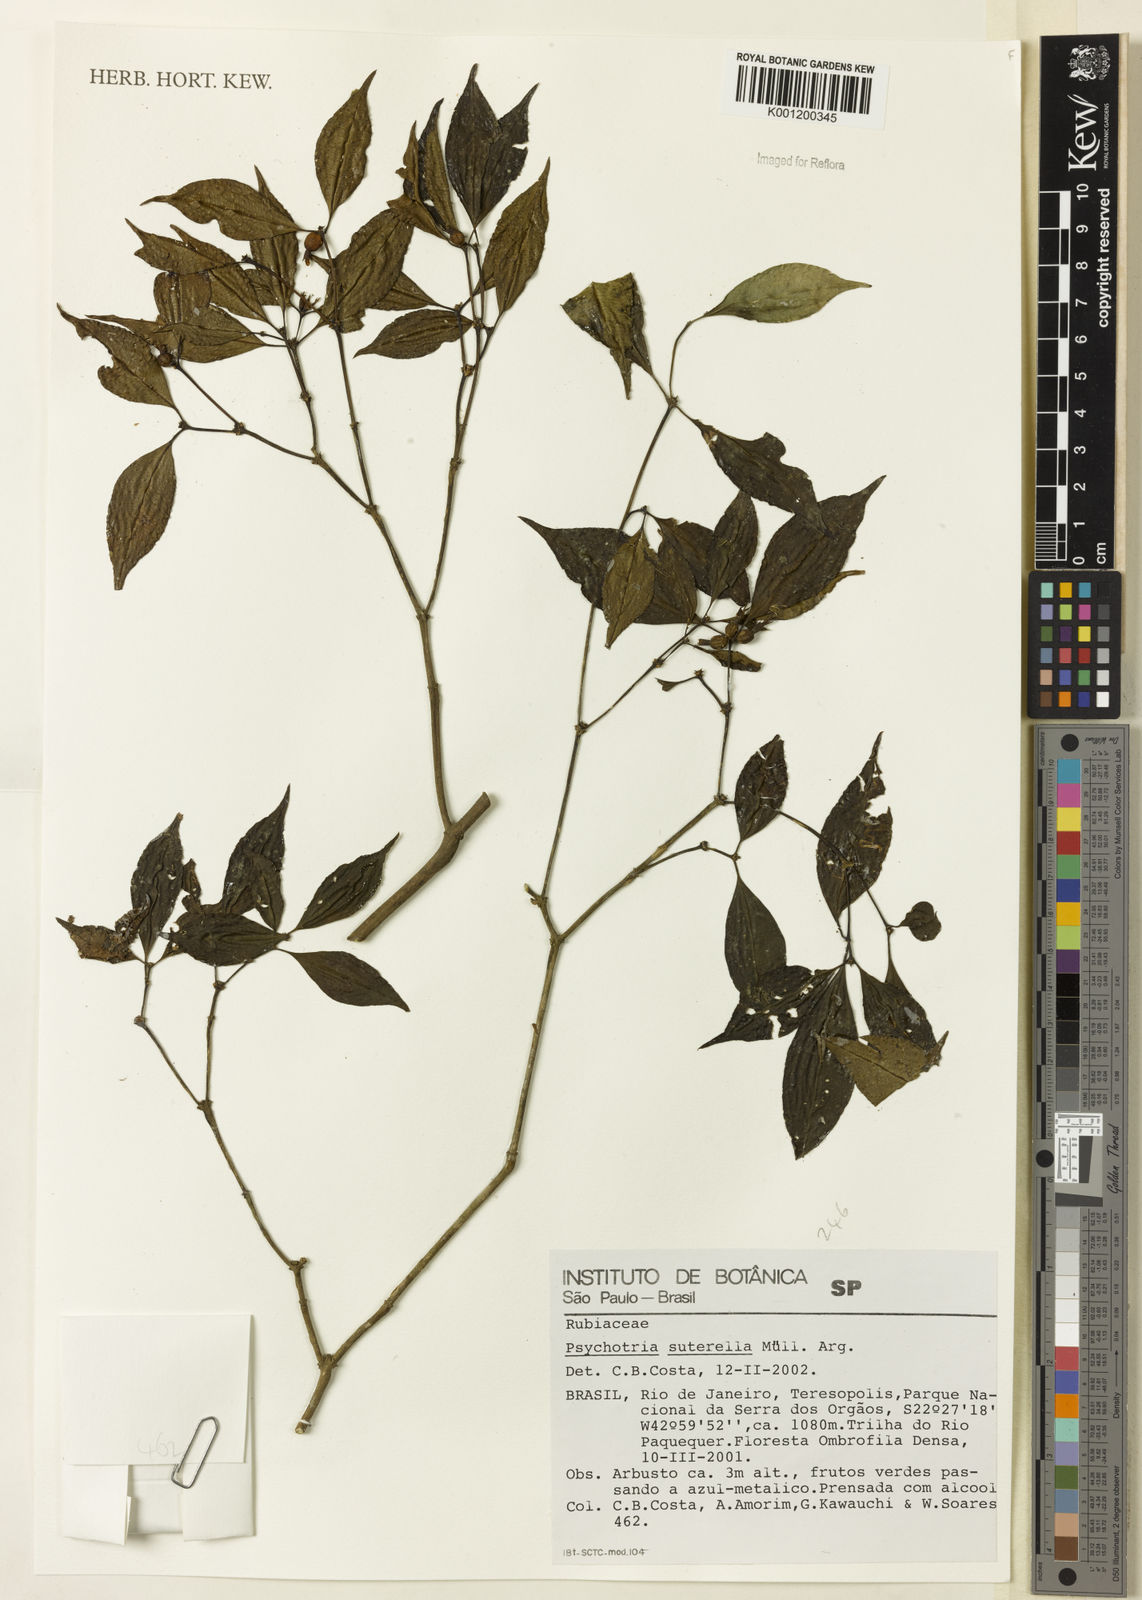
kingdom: Plantae
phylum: Tracheophyta
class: Magnoliopsida
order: Gentianales
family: Rubiaceae
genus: Psychotria
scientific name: Psychotria
